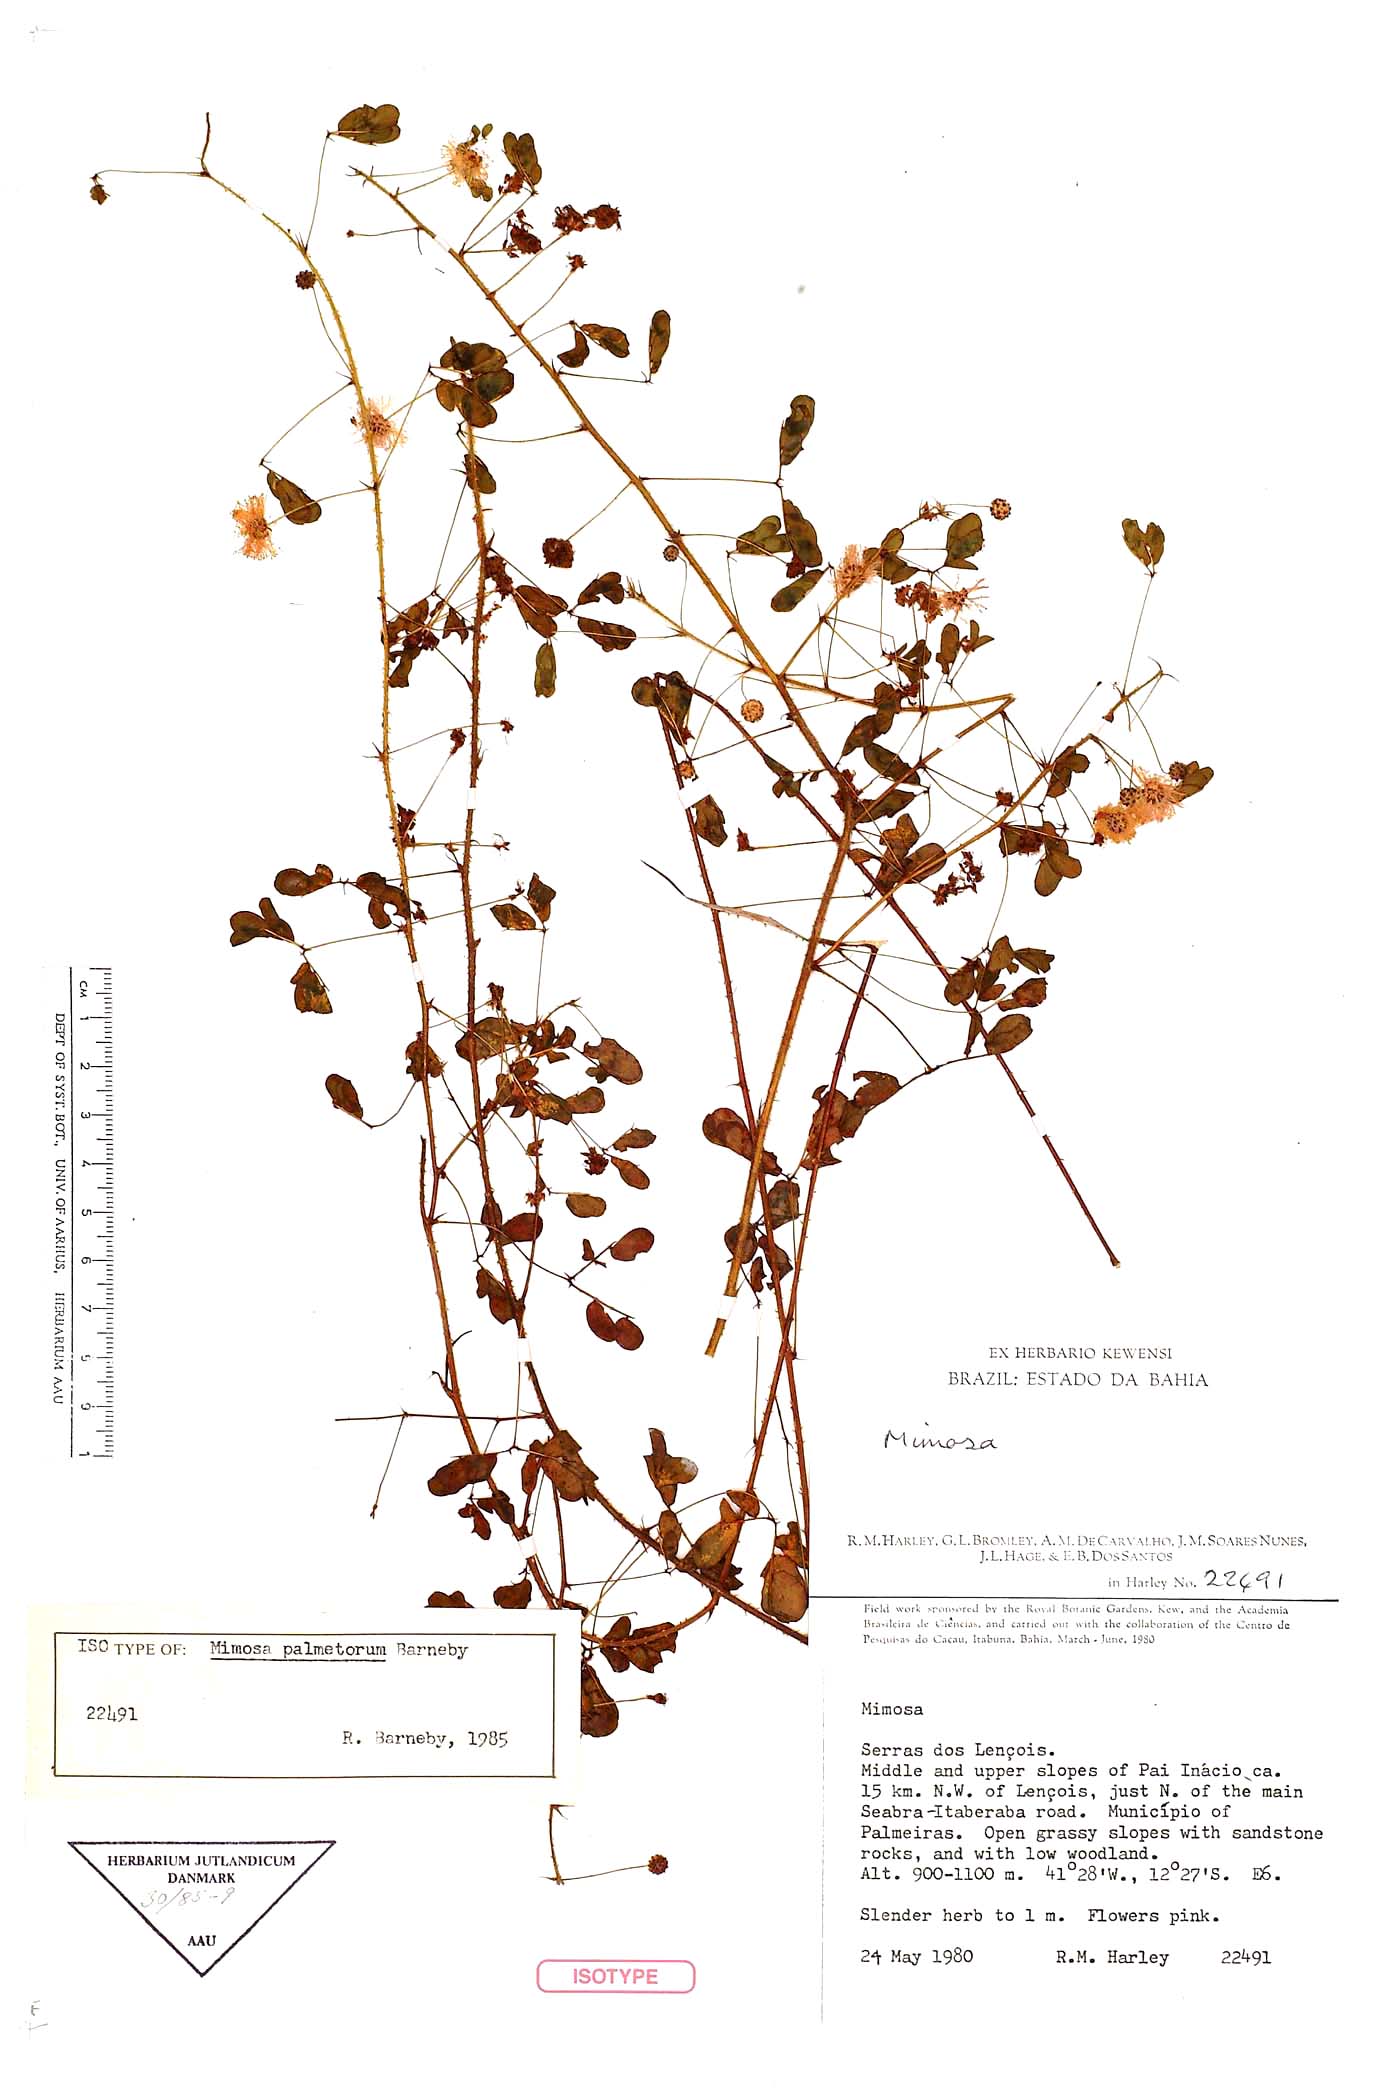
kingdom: Plantae
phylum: Tracheophyta
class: Magnoliopsida
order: Fabales
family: Fabaceae
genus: Mimosa
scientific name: Mimosa palmetorum
